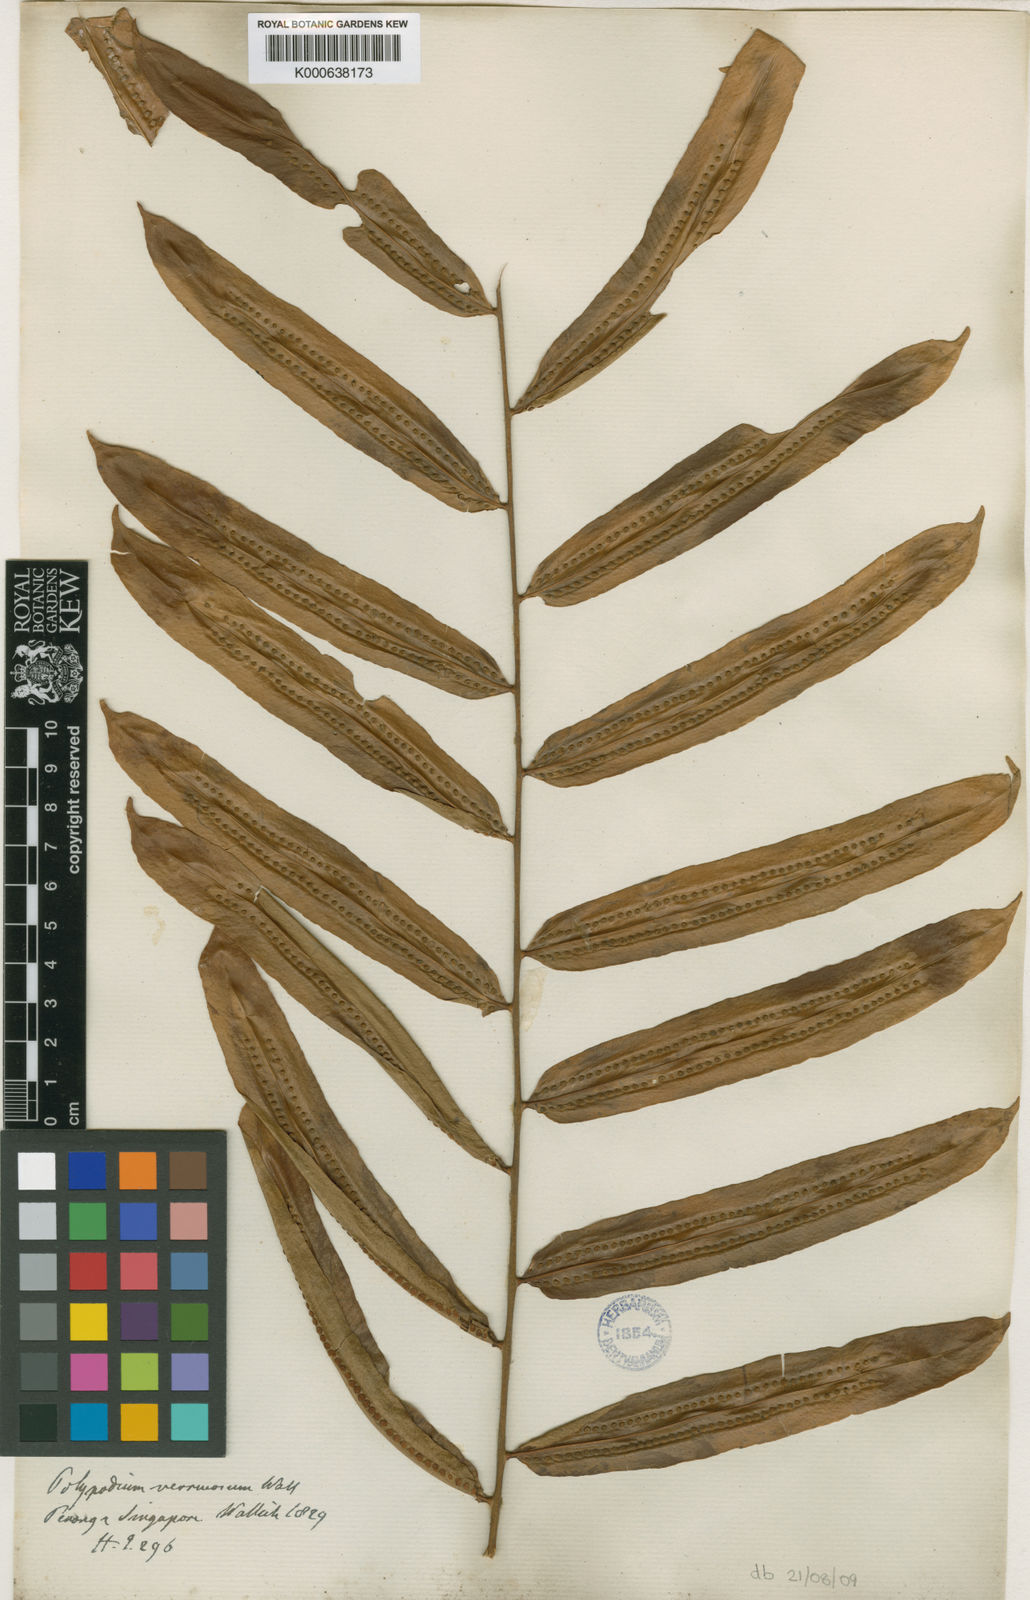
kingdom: Plantae
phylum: Tracheophyta
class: Polypodiopsida
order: Polypodiales
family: Polypodiaceae
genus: Microgramma
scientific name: Microgramma percussa
